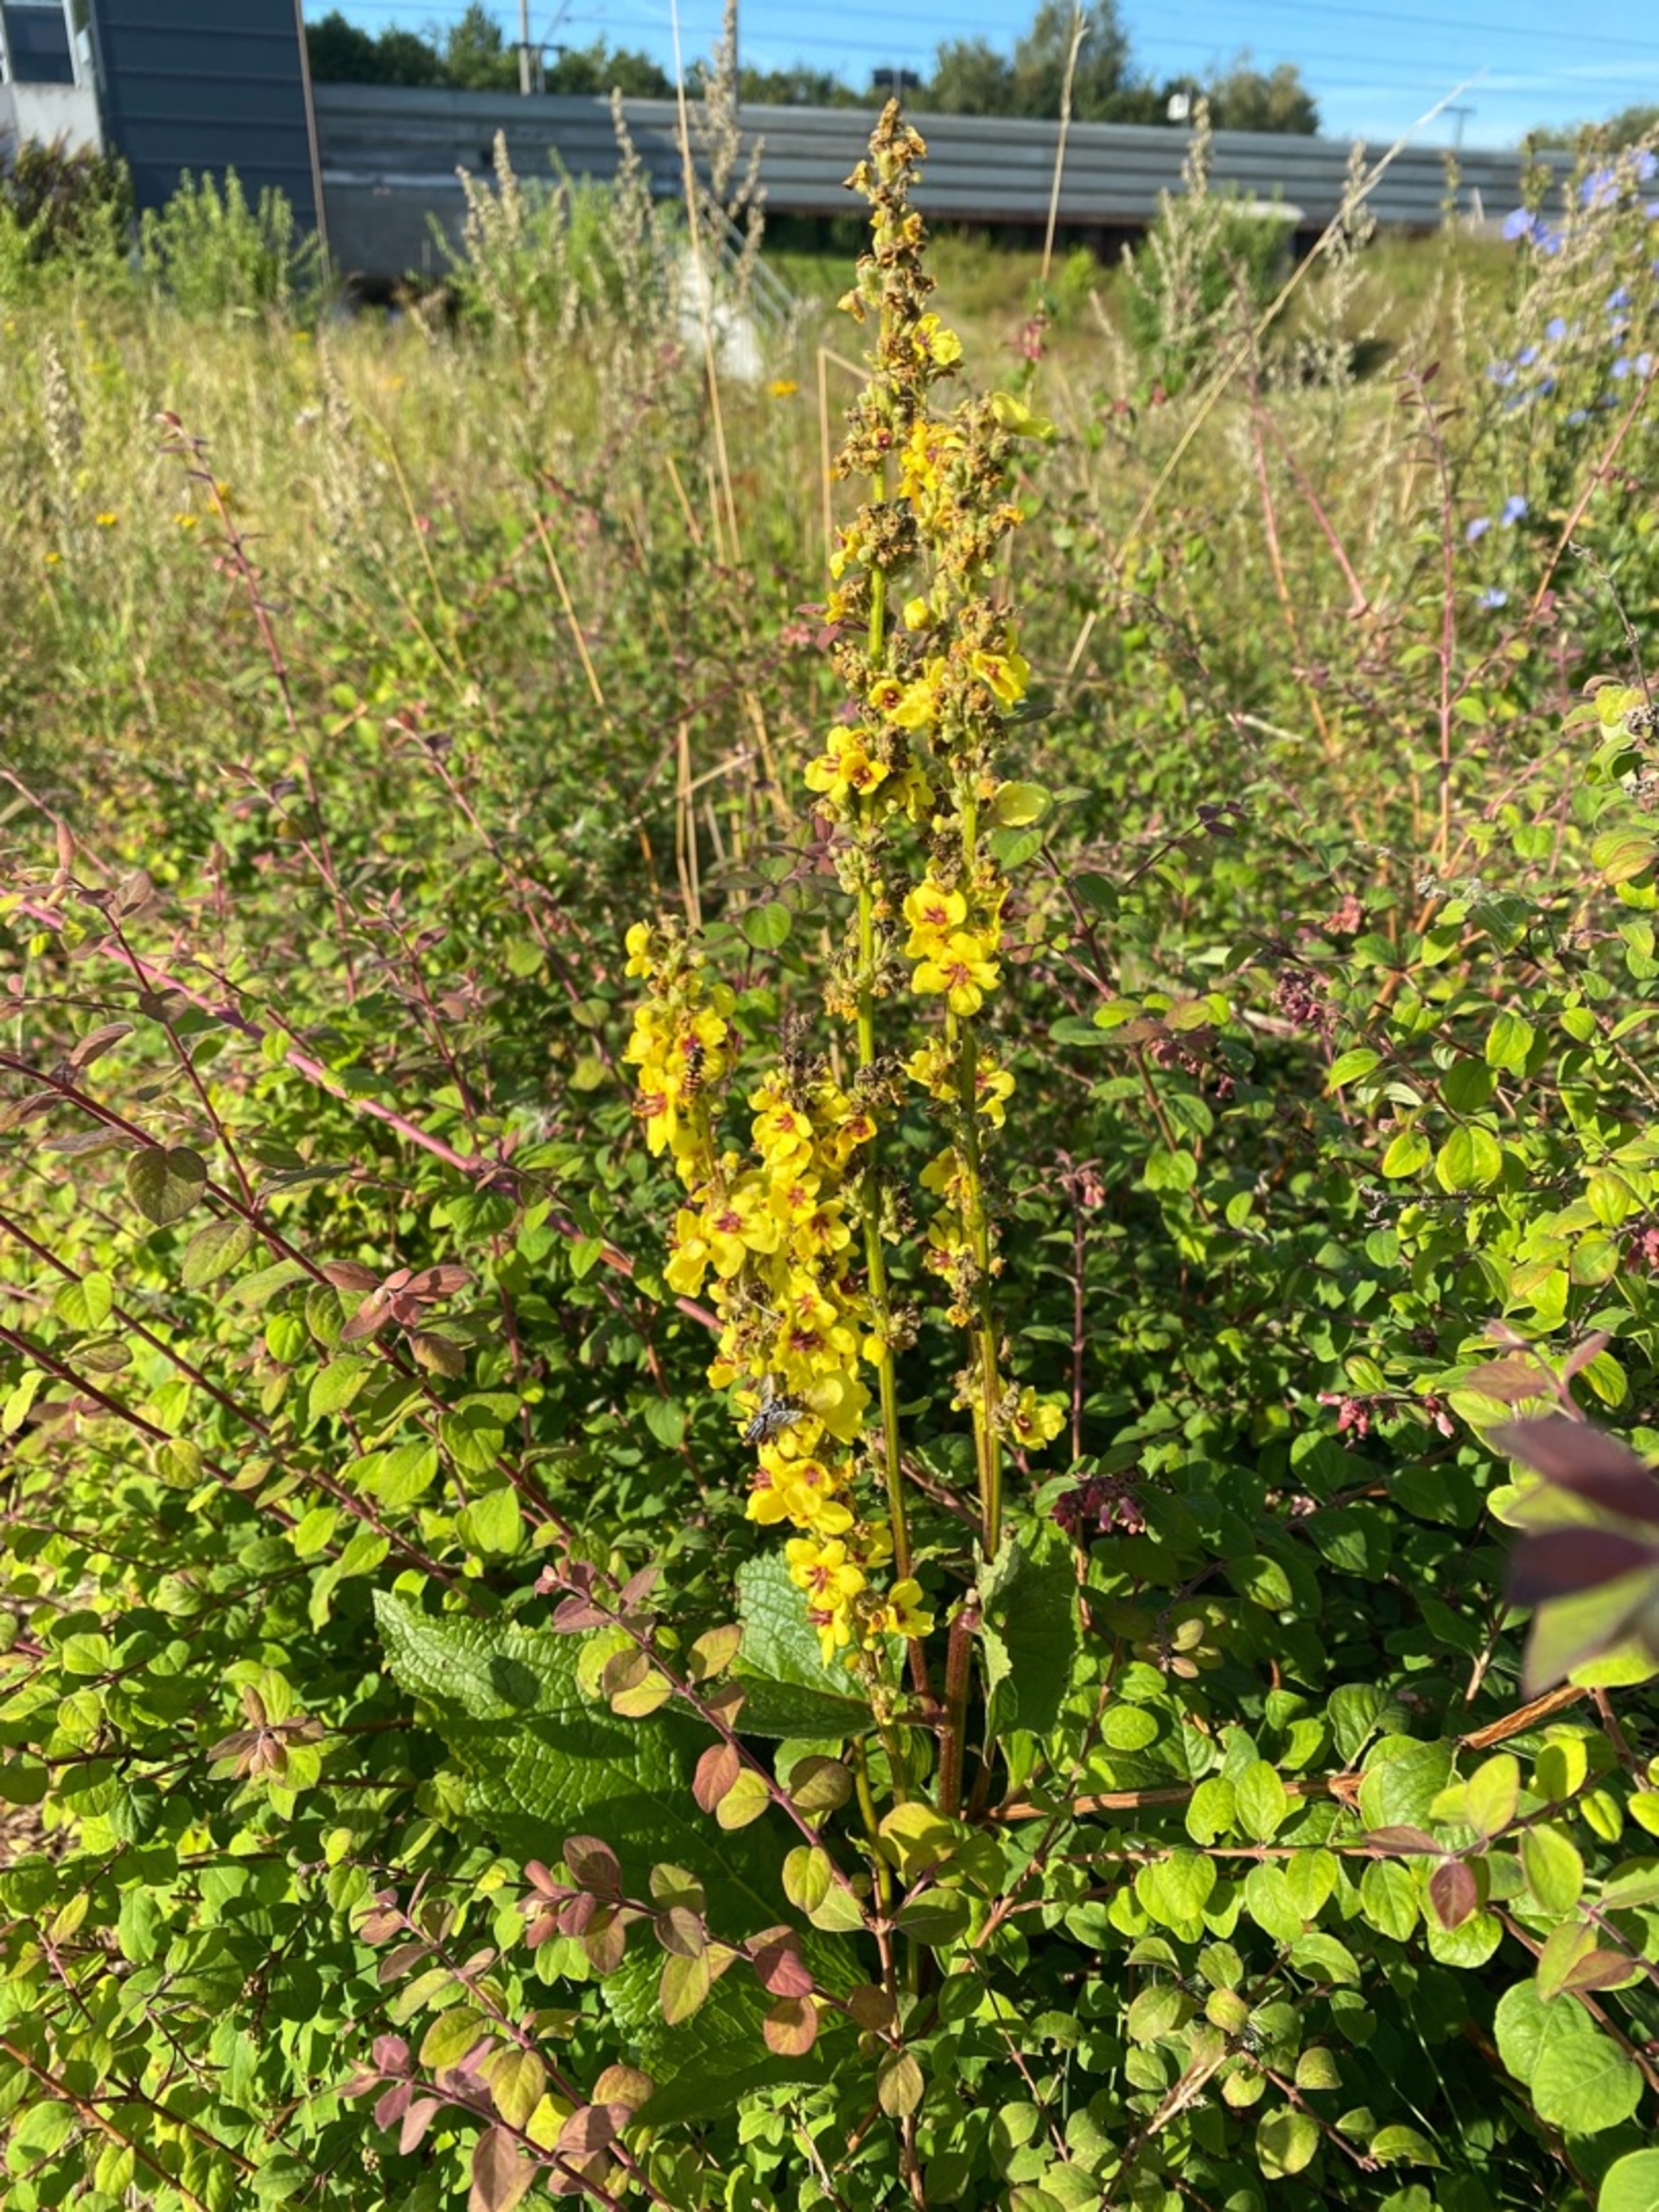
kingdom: Plantae
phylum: Tracheophyta
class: Magnoliopsida
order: Lamiales
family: Scrophulariaceae
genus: Verbascum
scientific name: Verbascum nigrum
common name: Mørk kongelys
